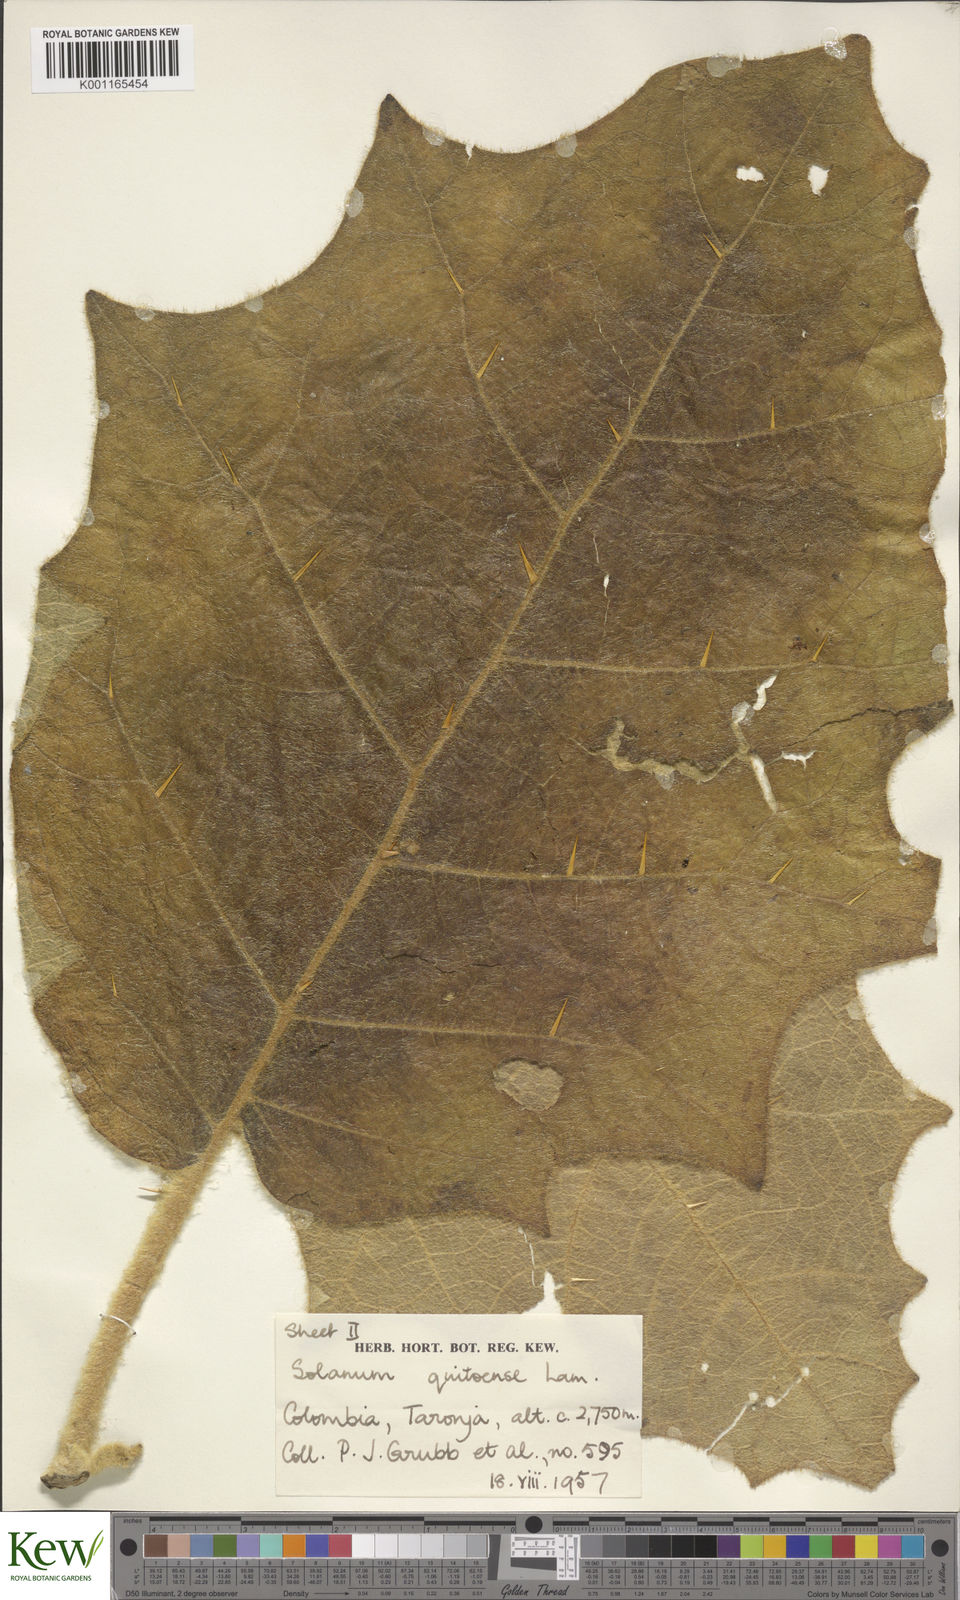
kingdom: Plantae
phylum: Tracheophyta
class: Magnoliopsida
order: Solanales
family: Solanaceae
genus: Solanum
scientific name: Solanum quitoense
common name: Quito-orange
